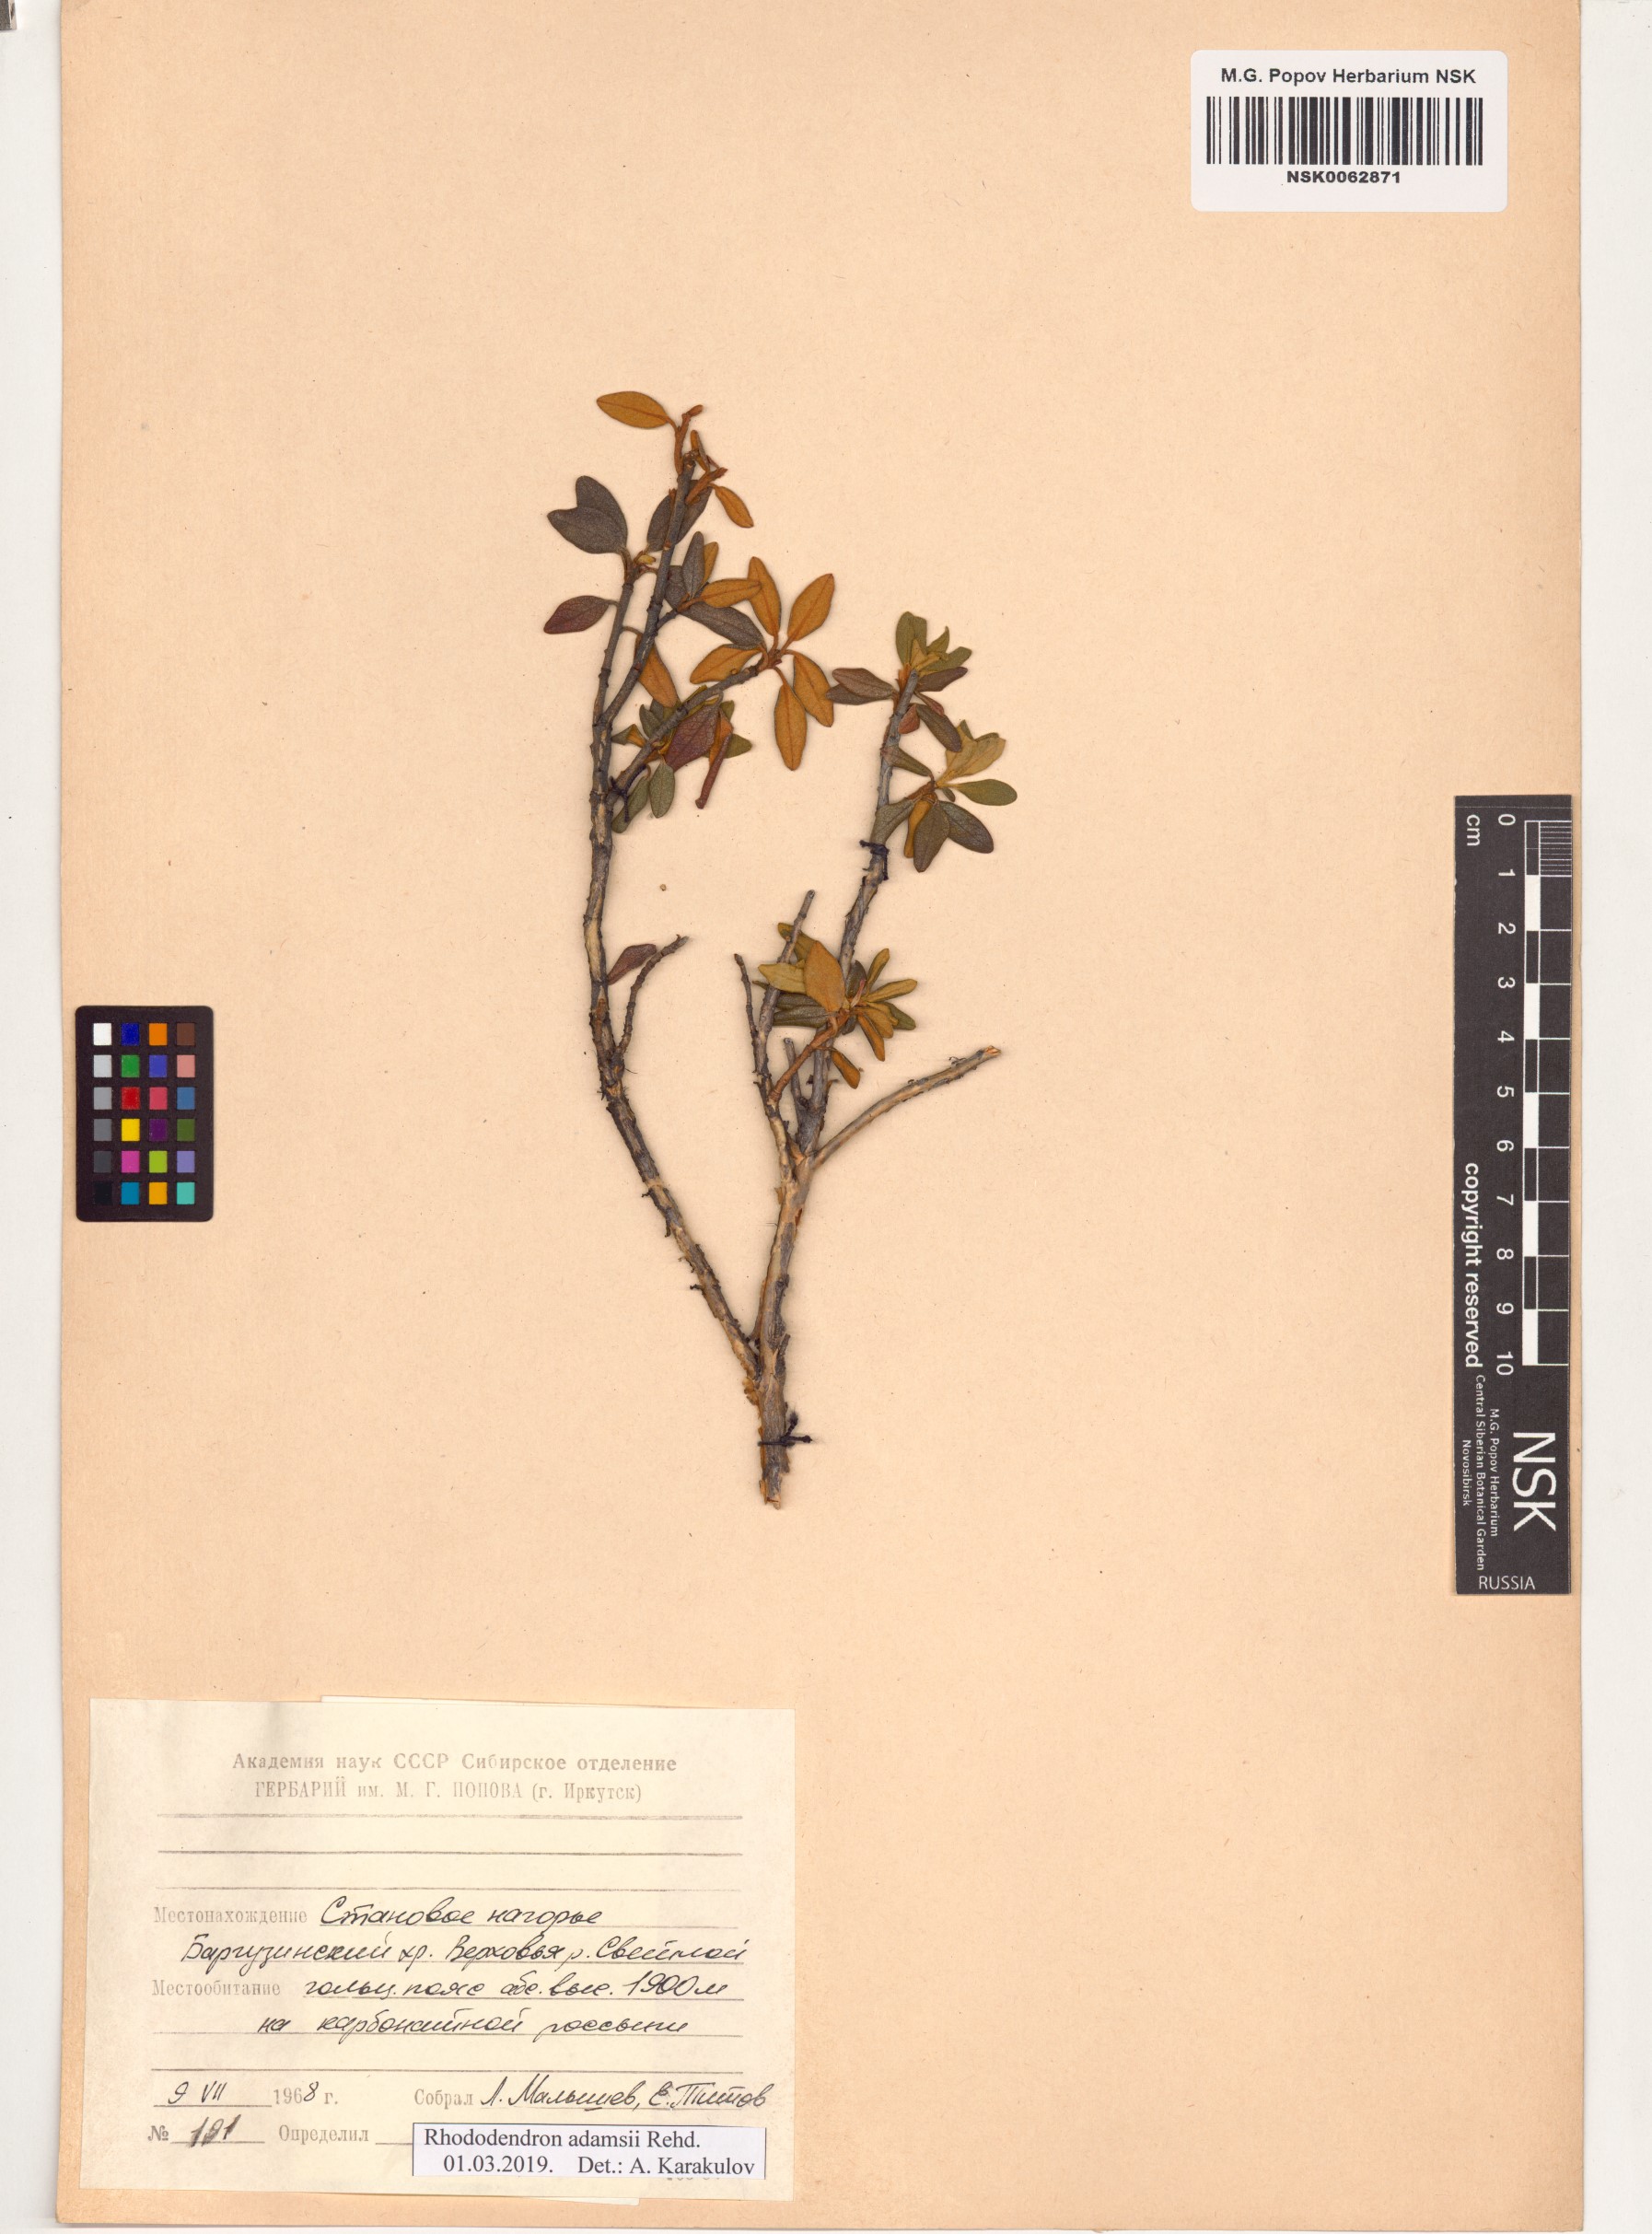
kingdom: Plantae
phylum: Tracheophyta
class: Magnoliopsida
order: Ericales
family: Ericaceae
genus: Rhododendron
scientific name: Rhododendron adamsii
